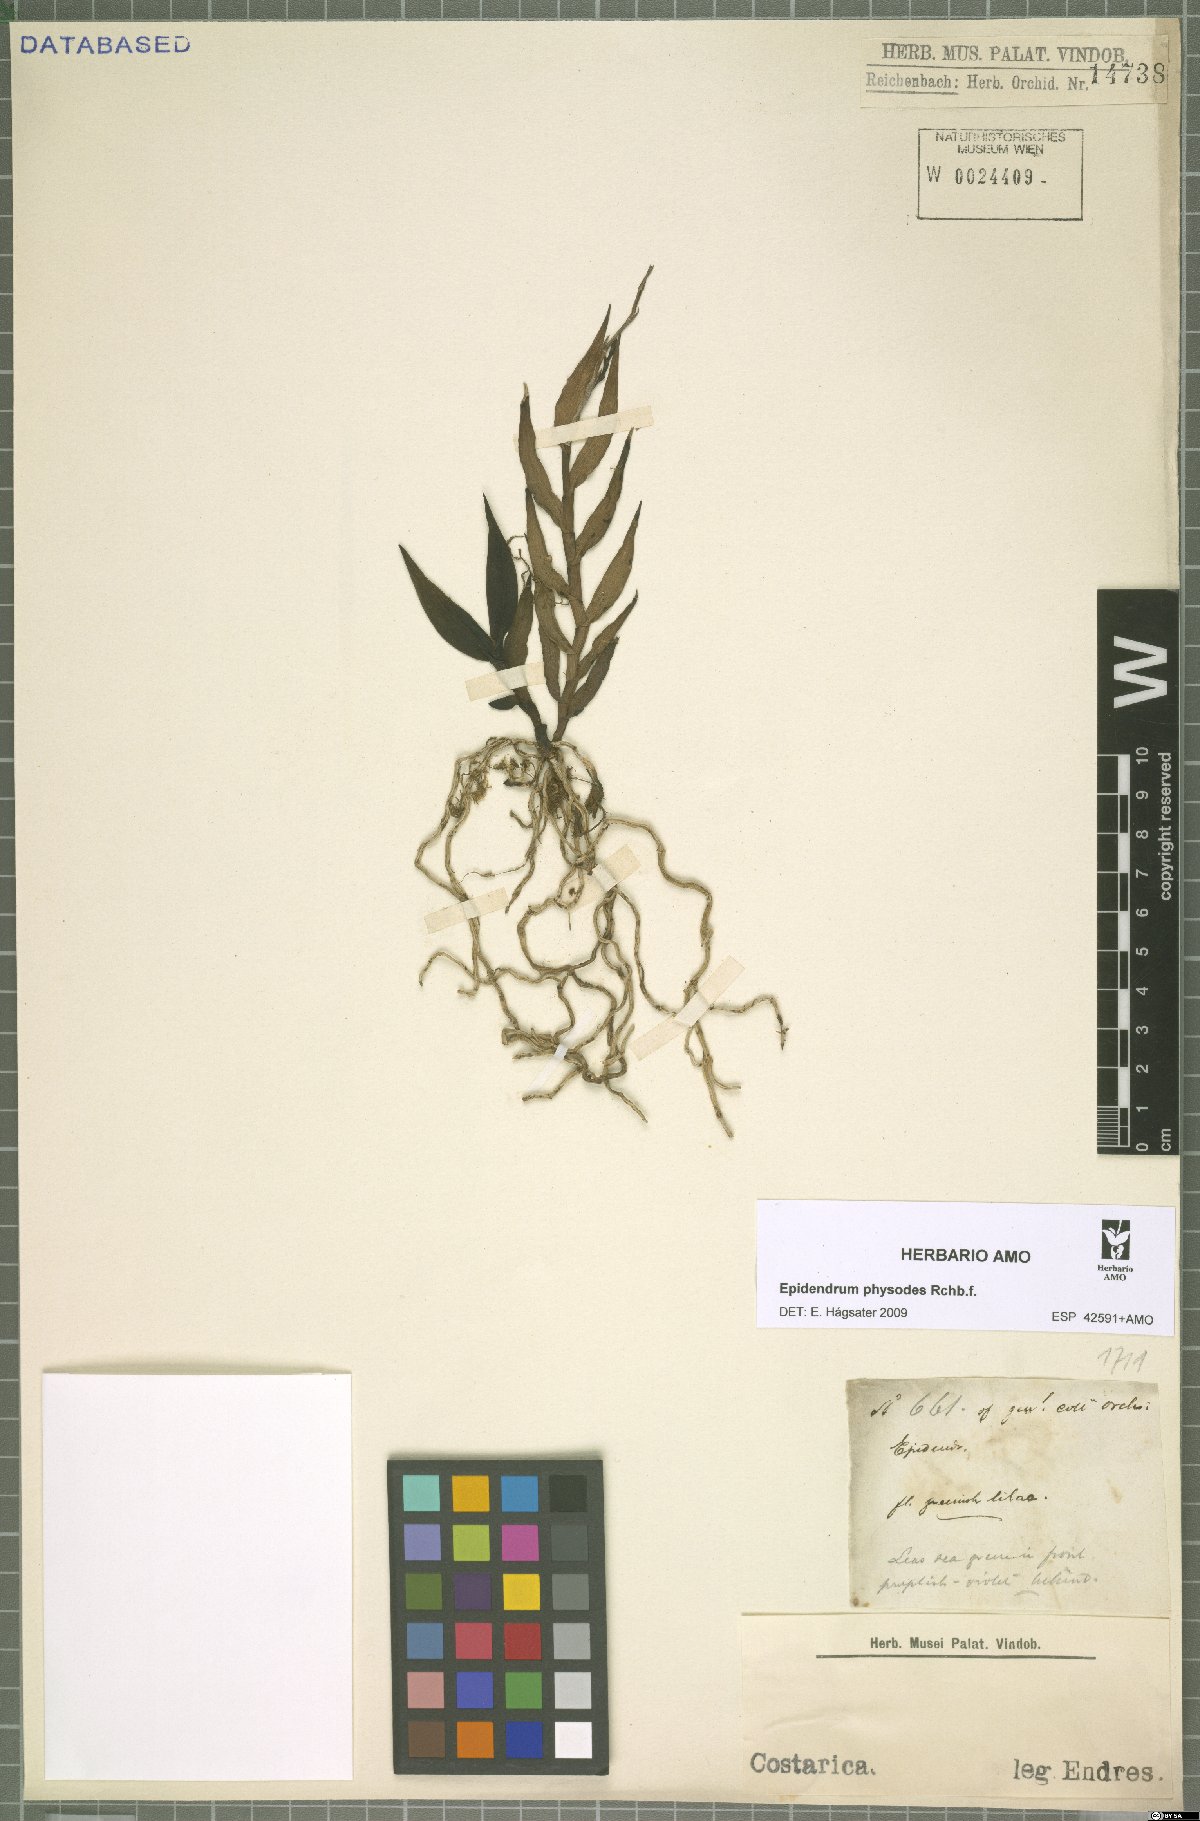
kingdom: Plantae
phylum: Tracheophyta
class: Liliopsida
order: Asparagales
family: Orchidaceae
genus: Epidendrum
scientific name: Epidendrum physodes
